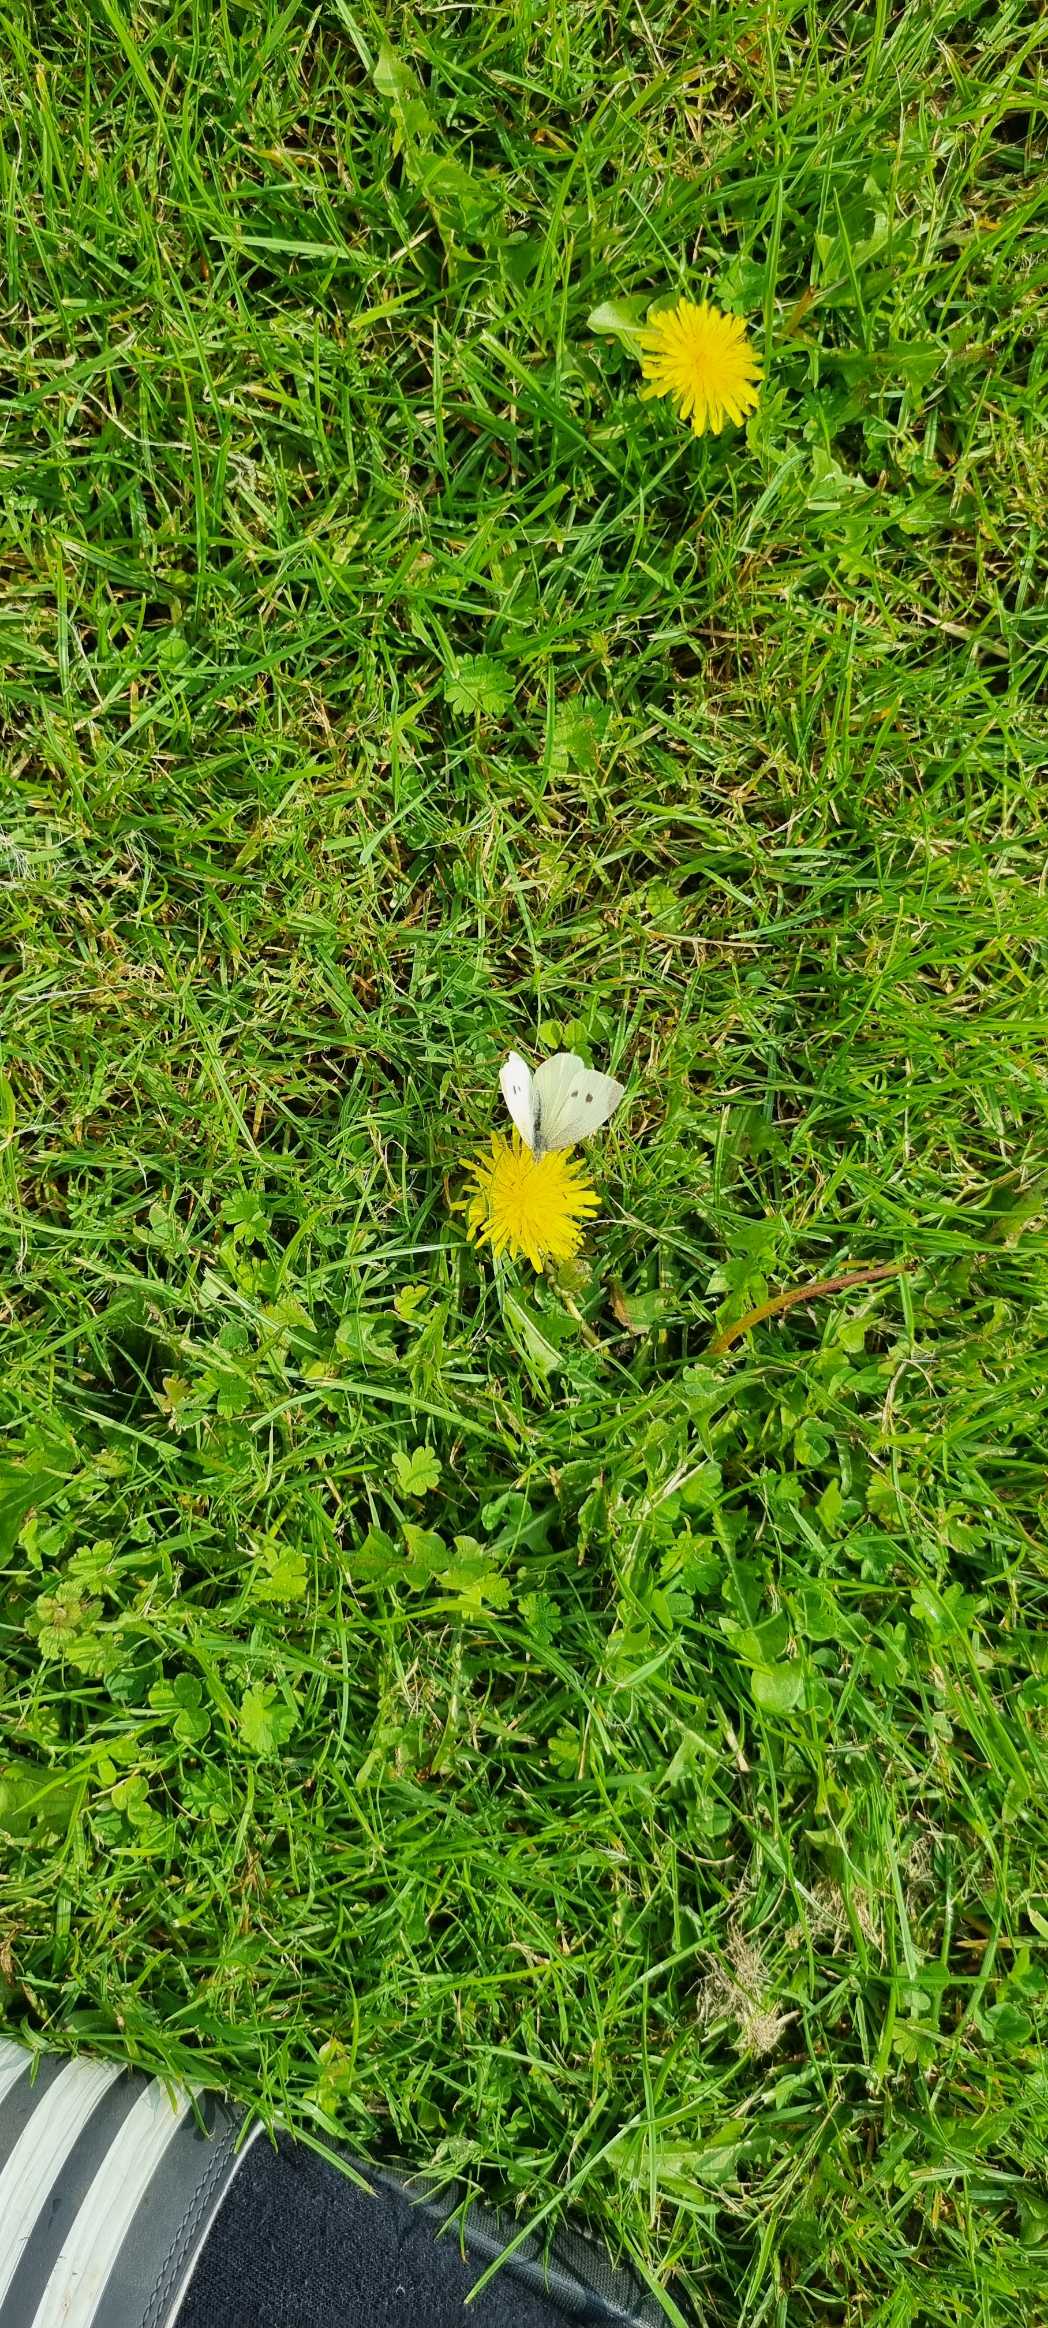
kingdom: Animalia
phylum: Arthropoda
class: Insecta
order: Lepidoptera
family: Pieridae
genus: Pieris
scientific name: Pieris rapae
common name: Lille kålsommerfugl
